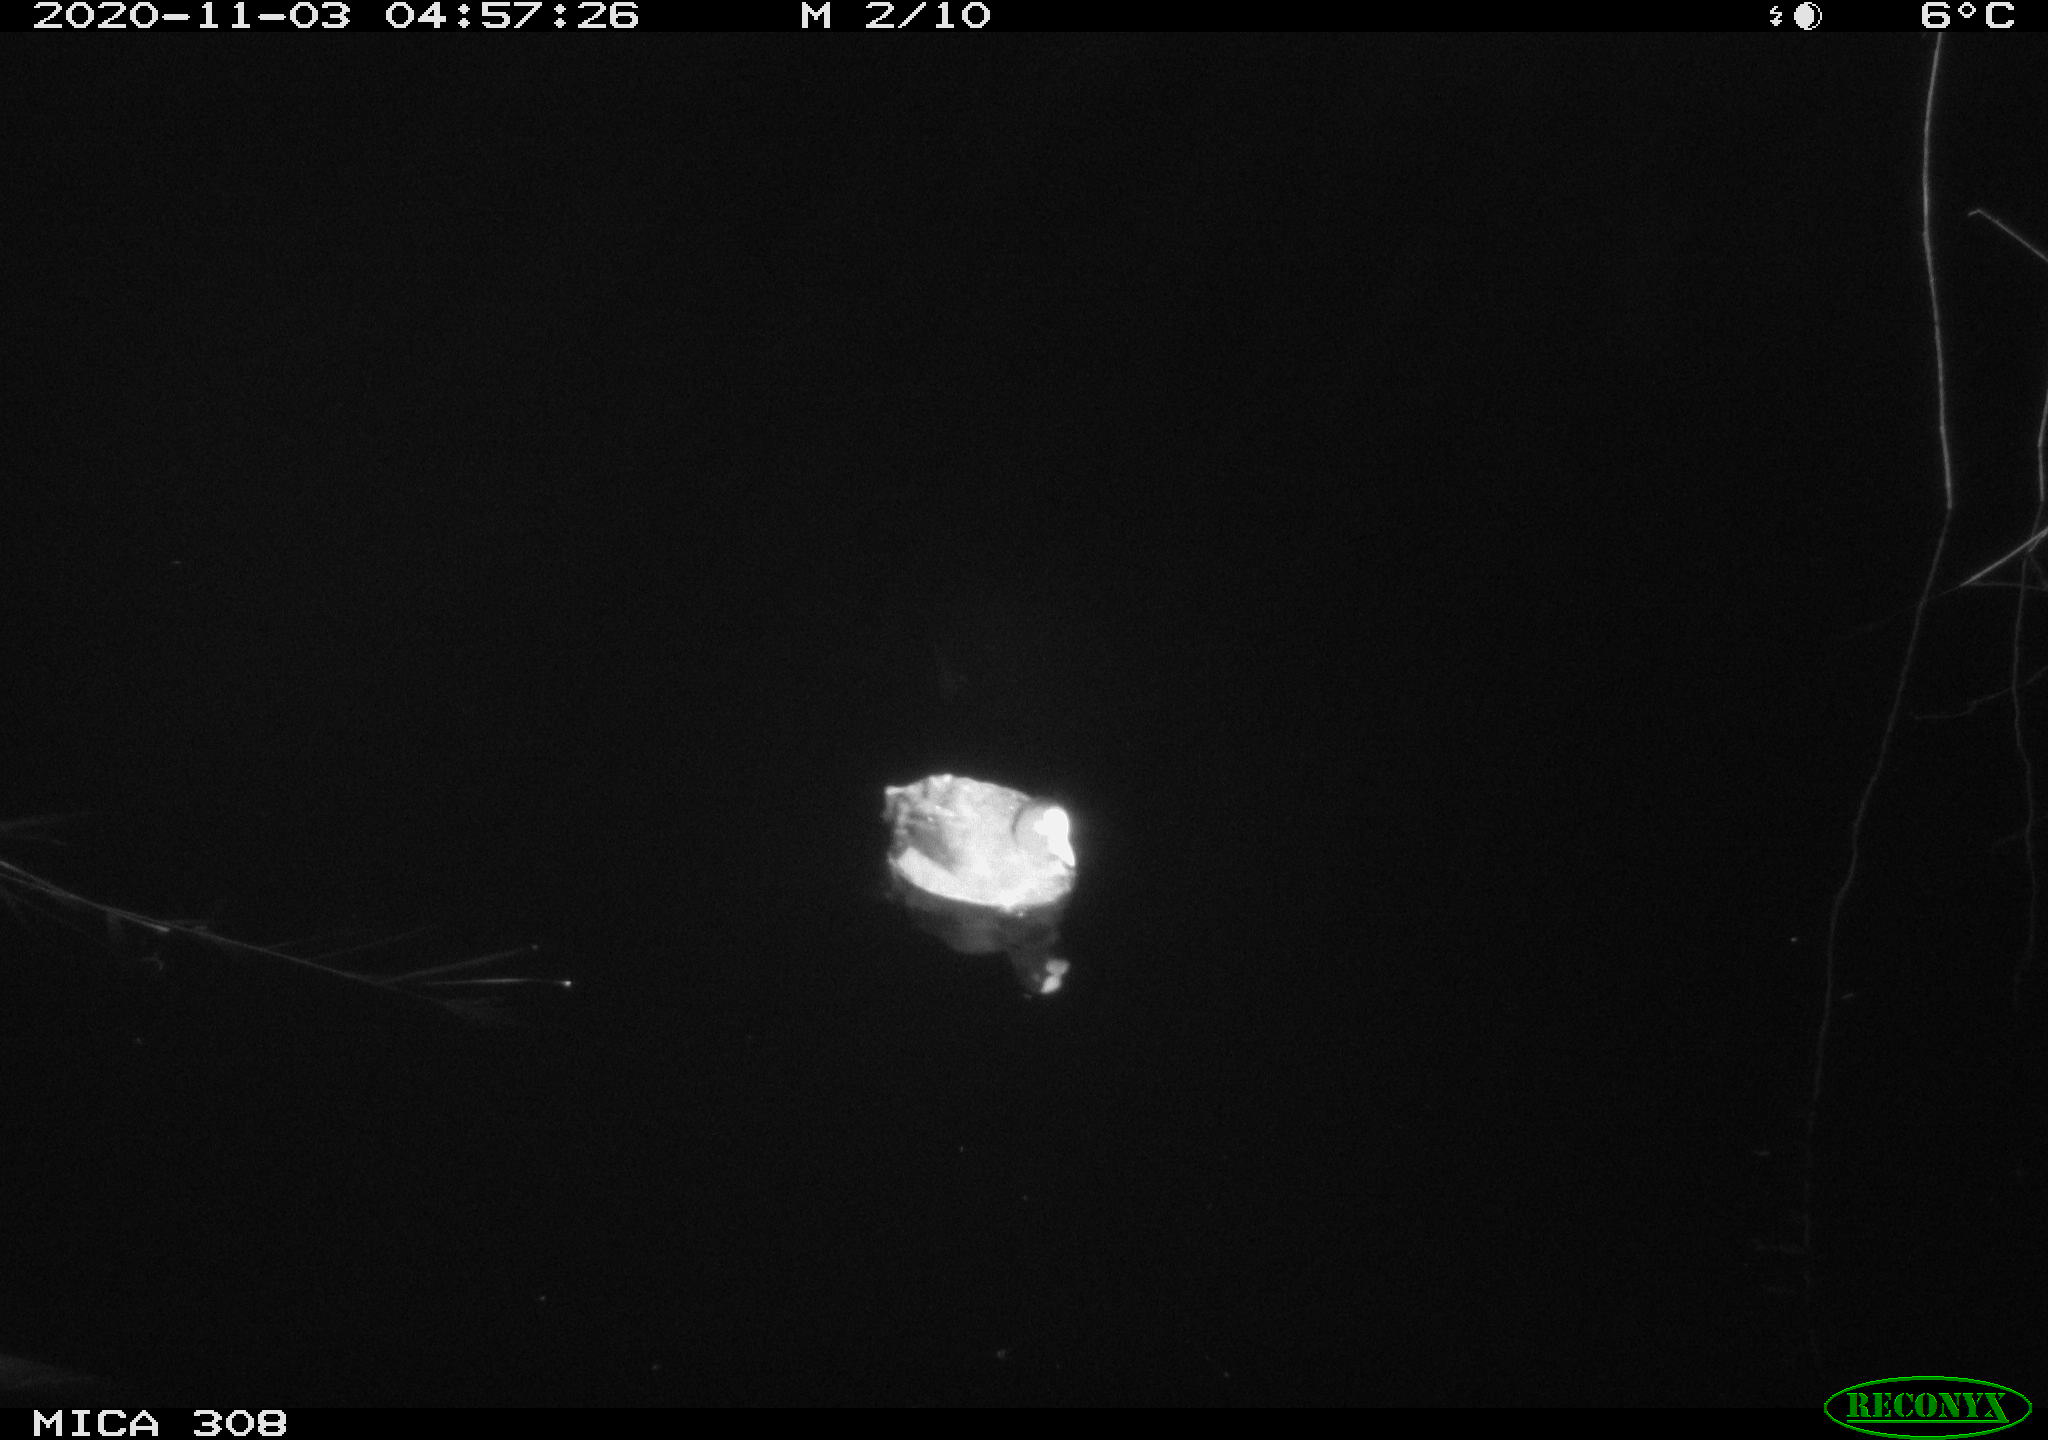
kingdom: Animalia
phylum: Chordata
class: Aves
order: Gruiformes
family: Rallidae
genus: Fulica
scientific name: Fulica atra
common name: Eurasian coot
